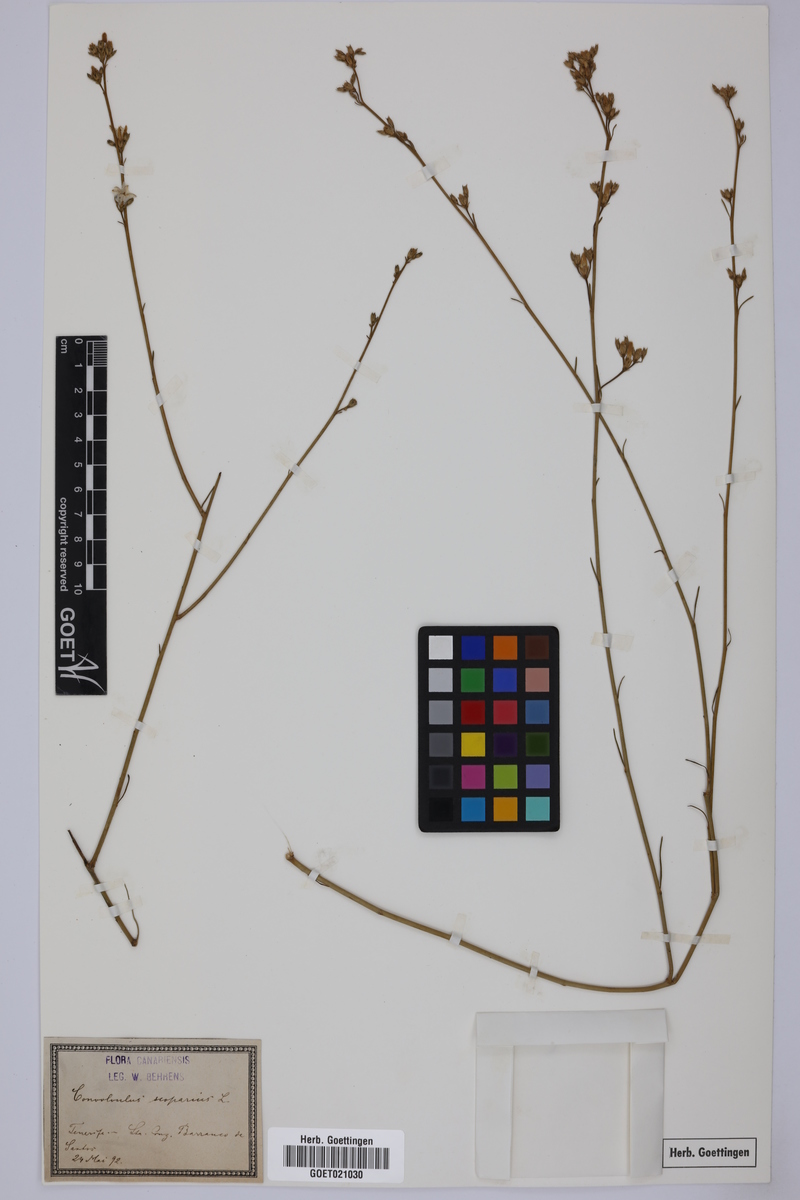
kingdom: Plantae
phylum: Tracheophyta
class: Magnoliopsida
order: Solanales
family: Convolvulaceae
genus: Convolvulus
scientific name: Convolvulus scoparius
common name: Lignum rhodium
